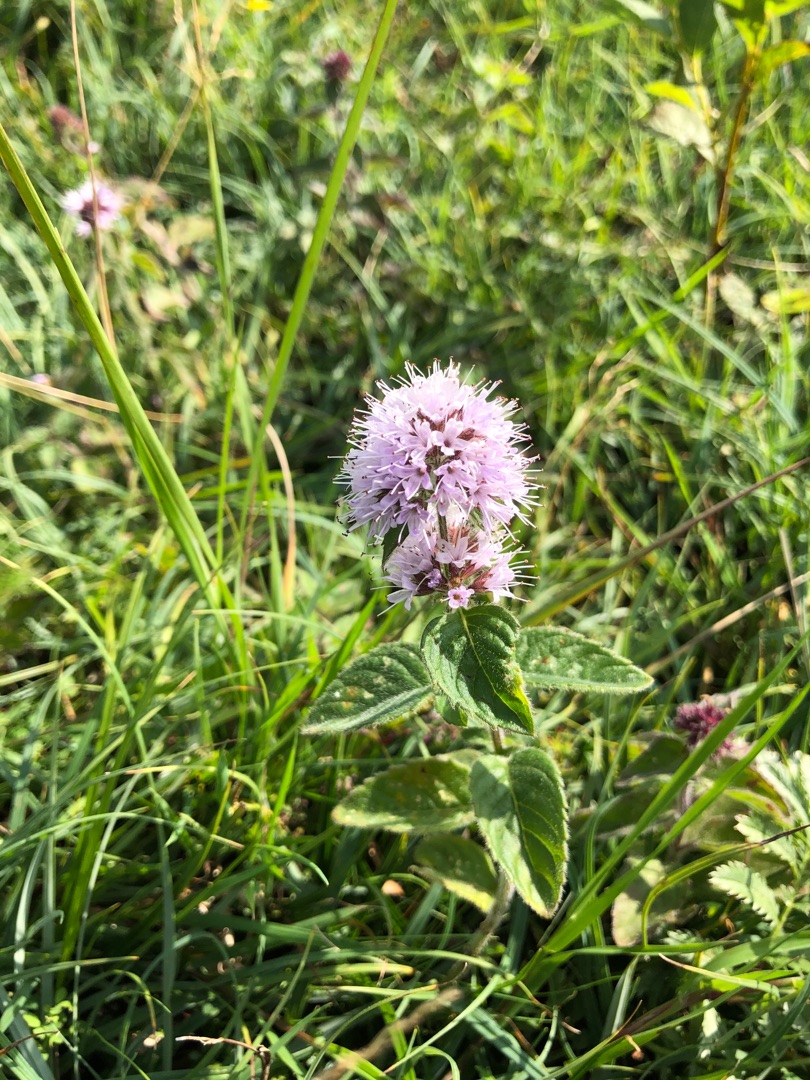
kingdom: Plantae
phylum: Tracheophyta
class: Magnoliopsida
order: Lamiales
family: Lamiaceae
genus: Mentha
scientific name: Mentha aquatica
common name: Vand-mynte
